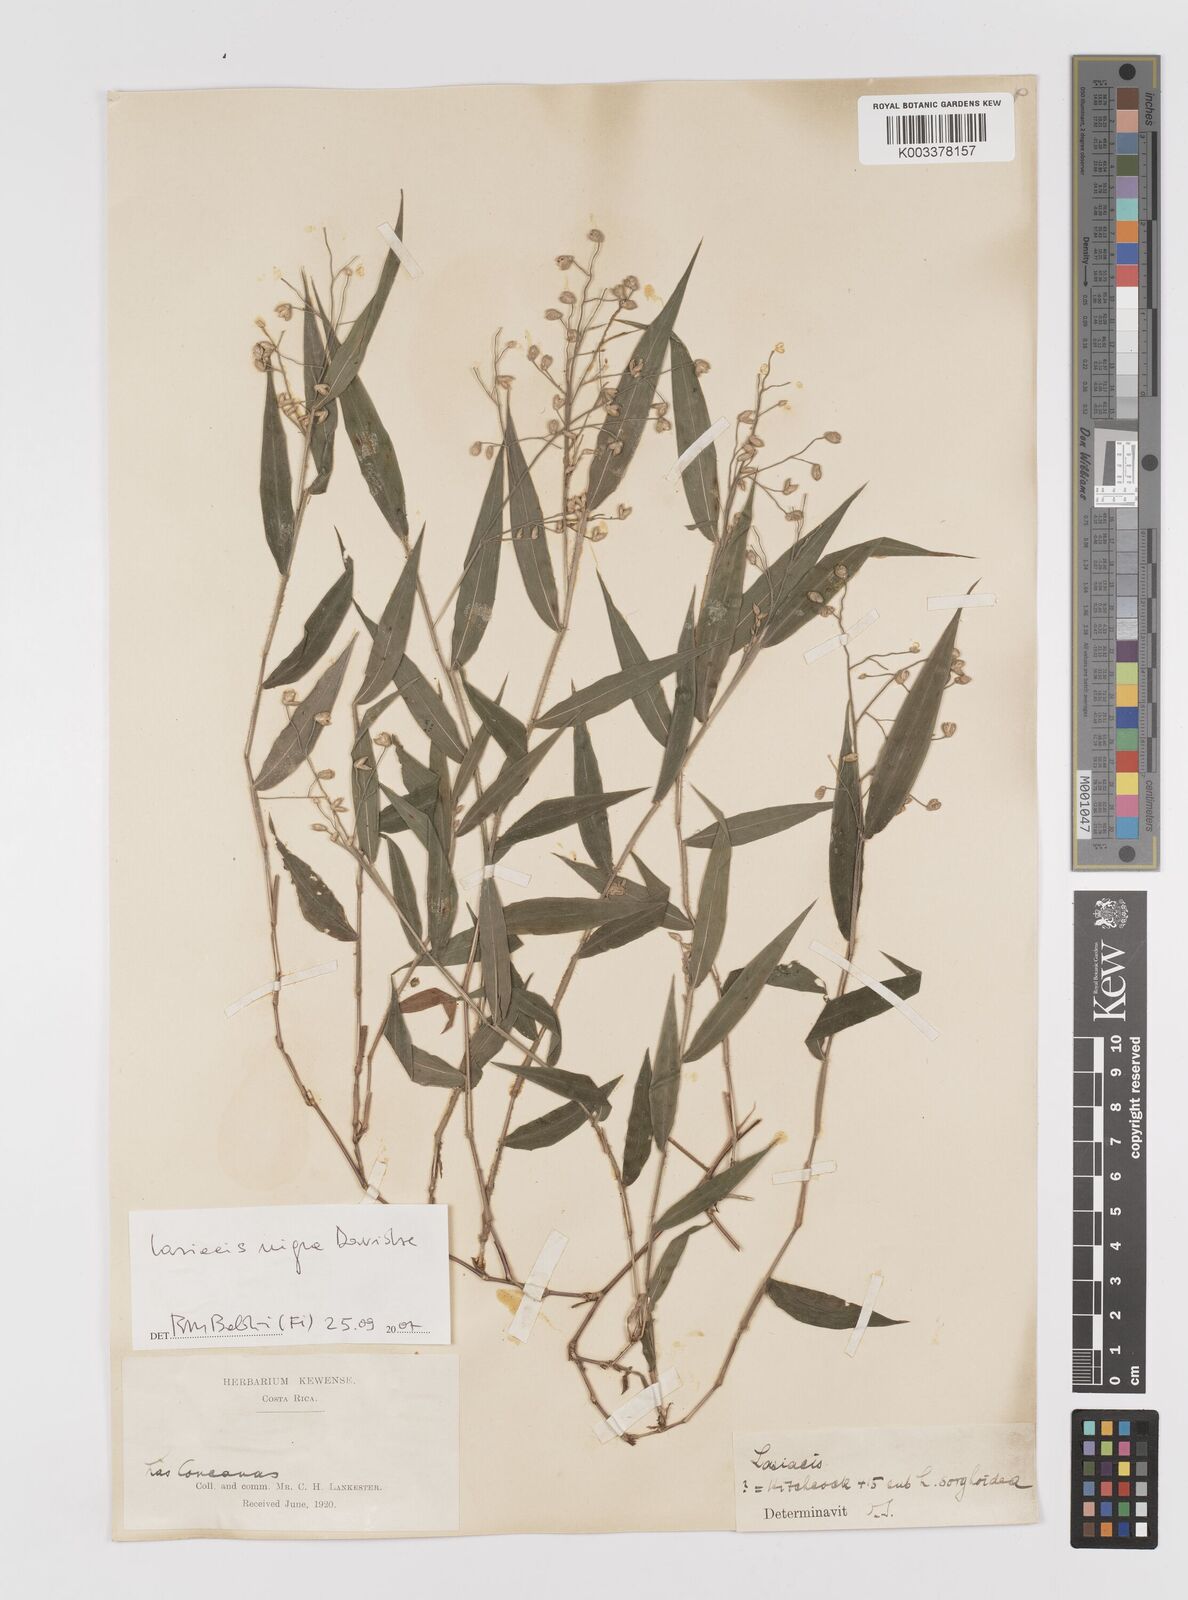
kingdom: Plantae
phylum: Tracheophyta
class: Liliopsida
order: Poales
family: Poaceae
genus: Lasiacis
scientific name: Lasiacis nigra
